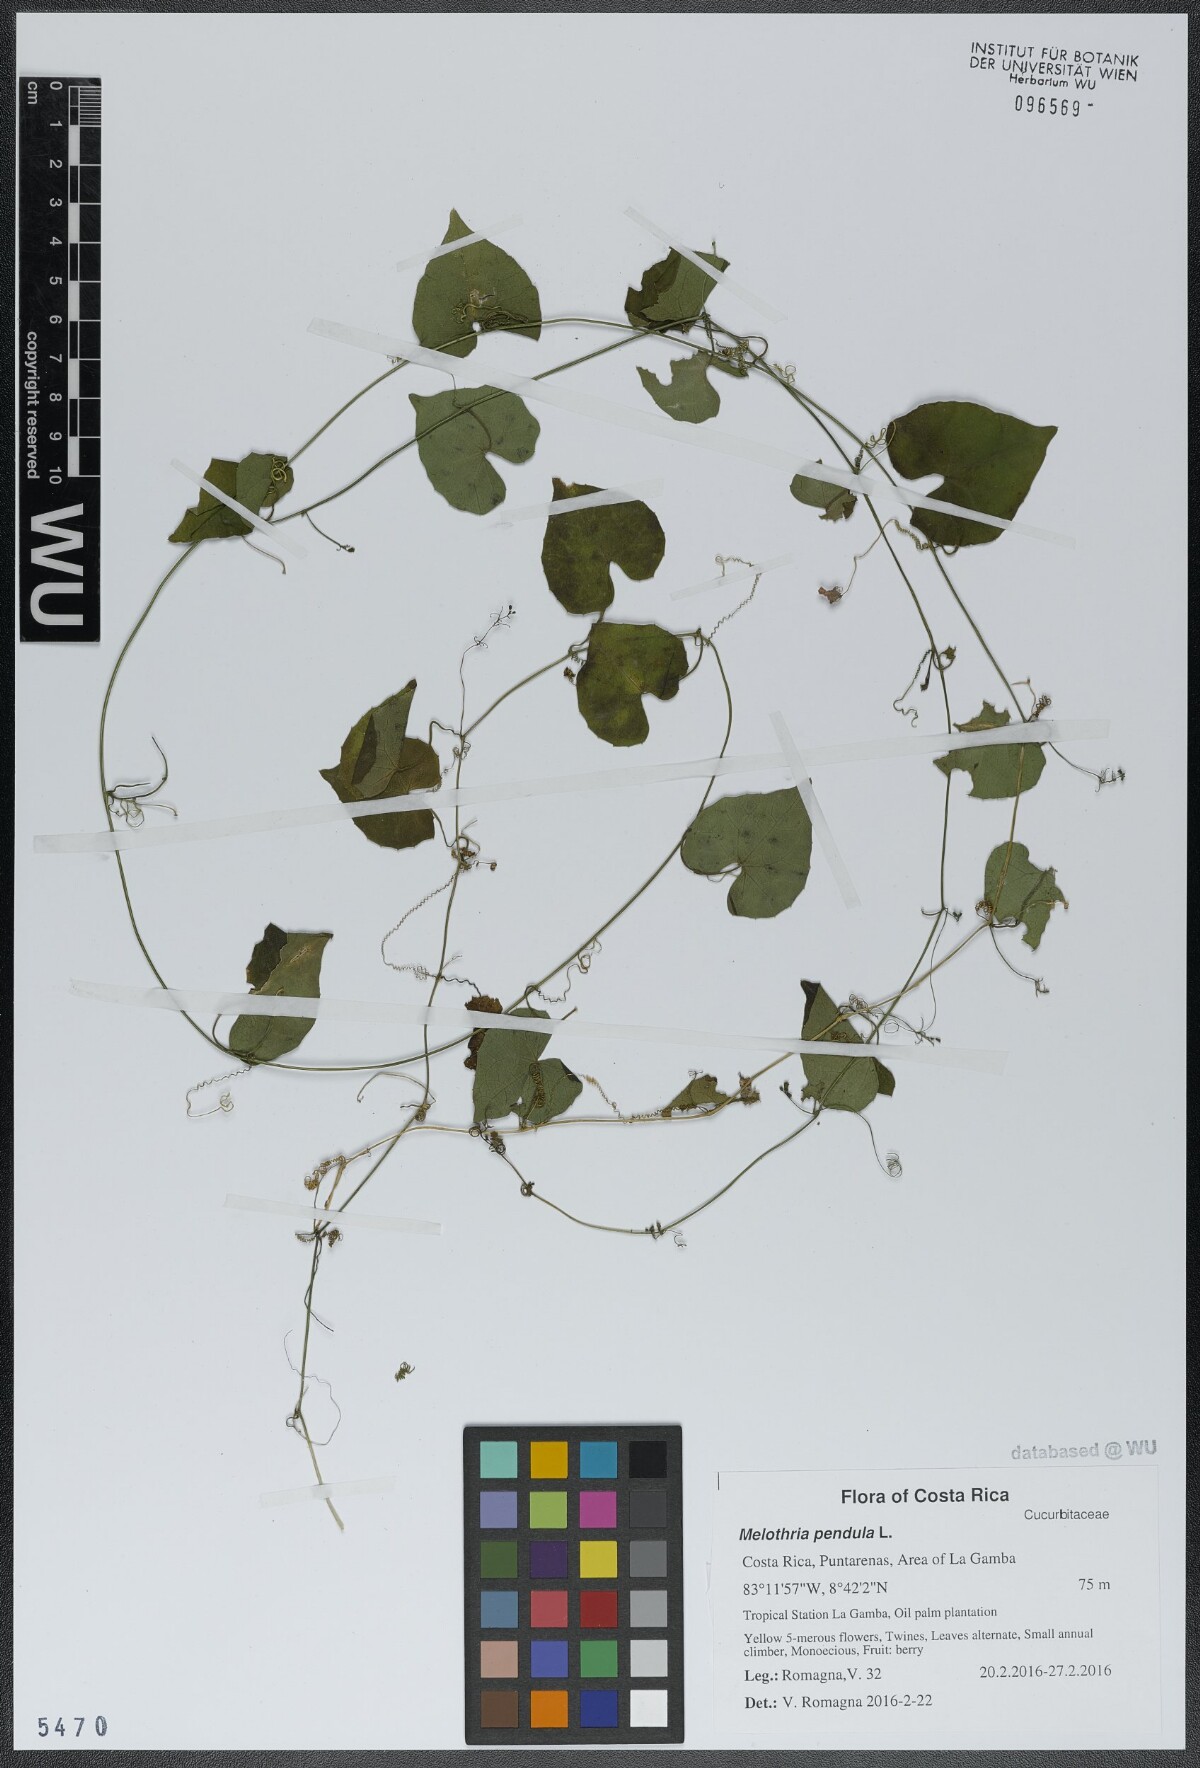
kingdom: Plantae
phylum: Tracheophyta
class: Magnoliopsida
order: Cucurbitales
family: Cucurbitaceae
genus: Melothria
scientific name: Melothria pendula
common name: Creeping-cucumber
